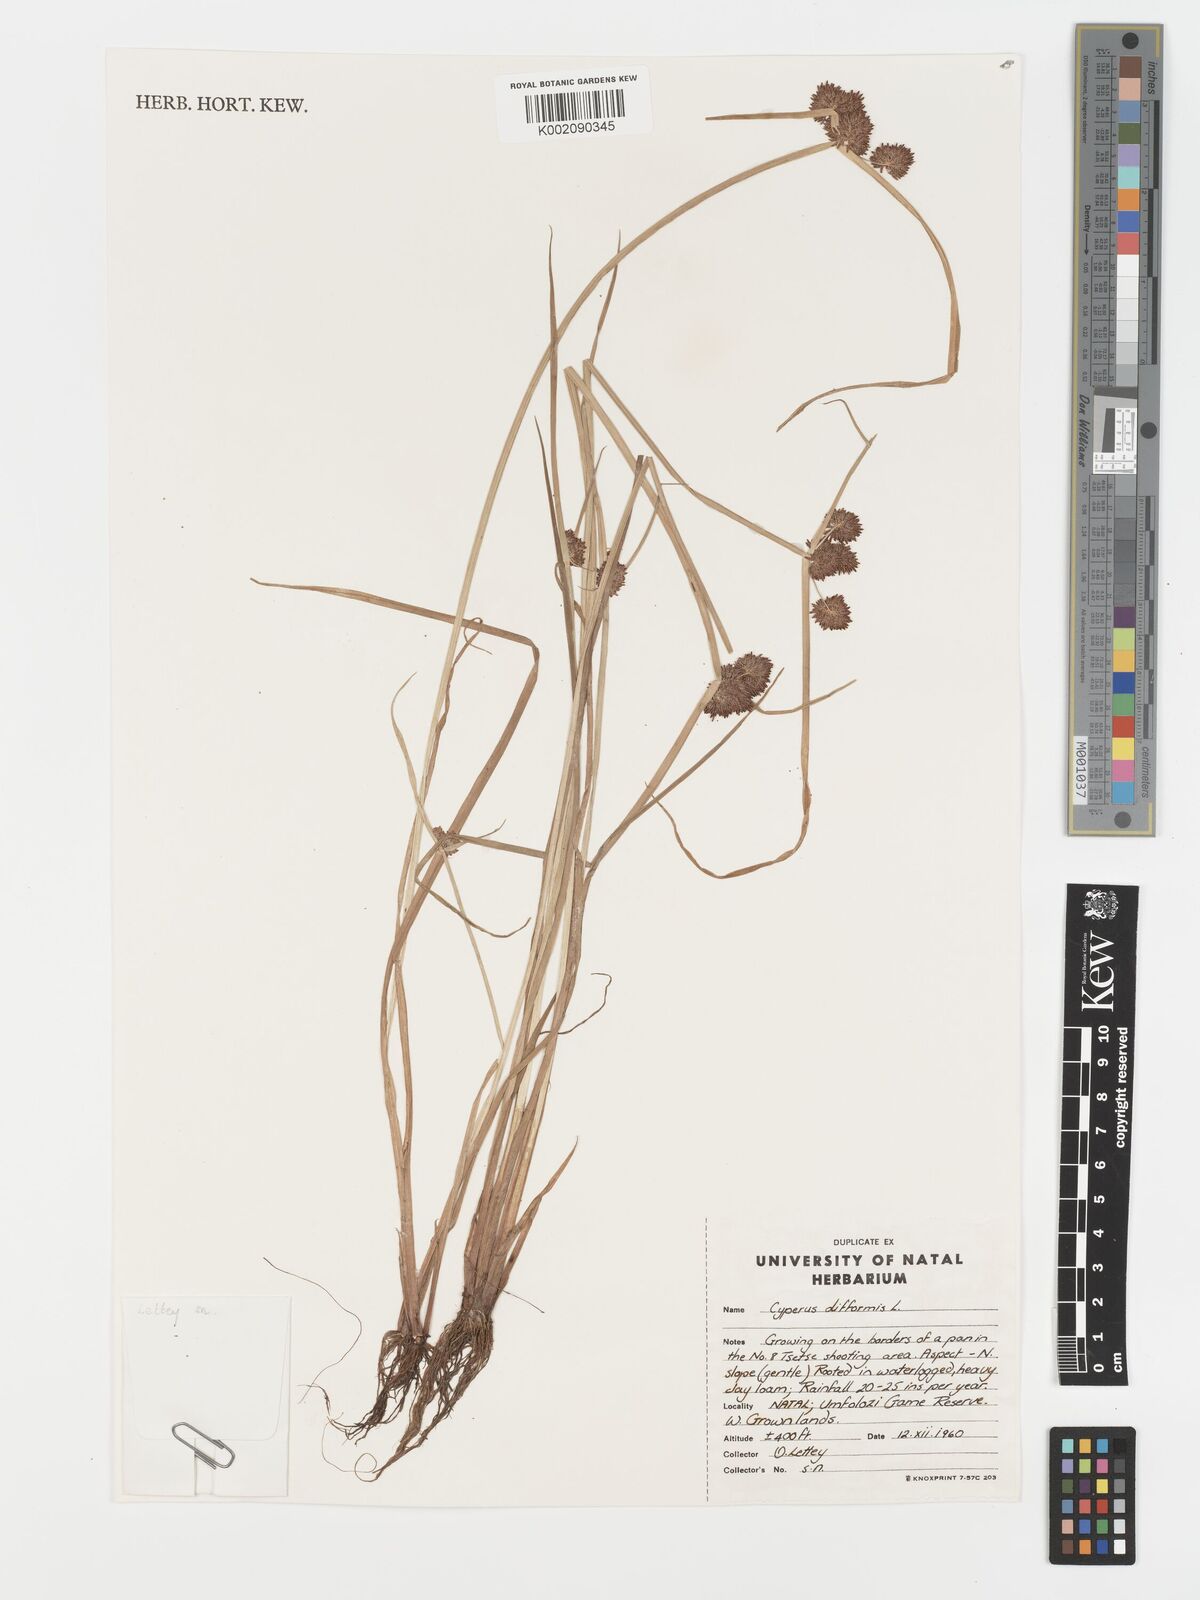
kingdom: Plantae
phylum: Tracheophyta
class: Liliopsida
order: Poales
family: Cyperaceae
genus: Cyperus
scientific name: Cyperus difformis
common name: Variable flatsedge
